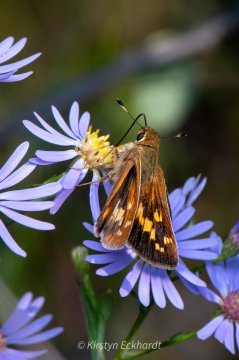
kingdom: Animalia
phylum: Arthropoda
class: Insecta
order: Lepidoptera
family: Hesperiidae
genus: Hesperia
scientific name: Hesperia leonardus
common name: Leonard's Skipper
